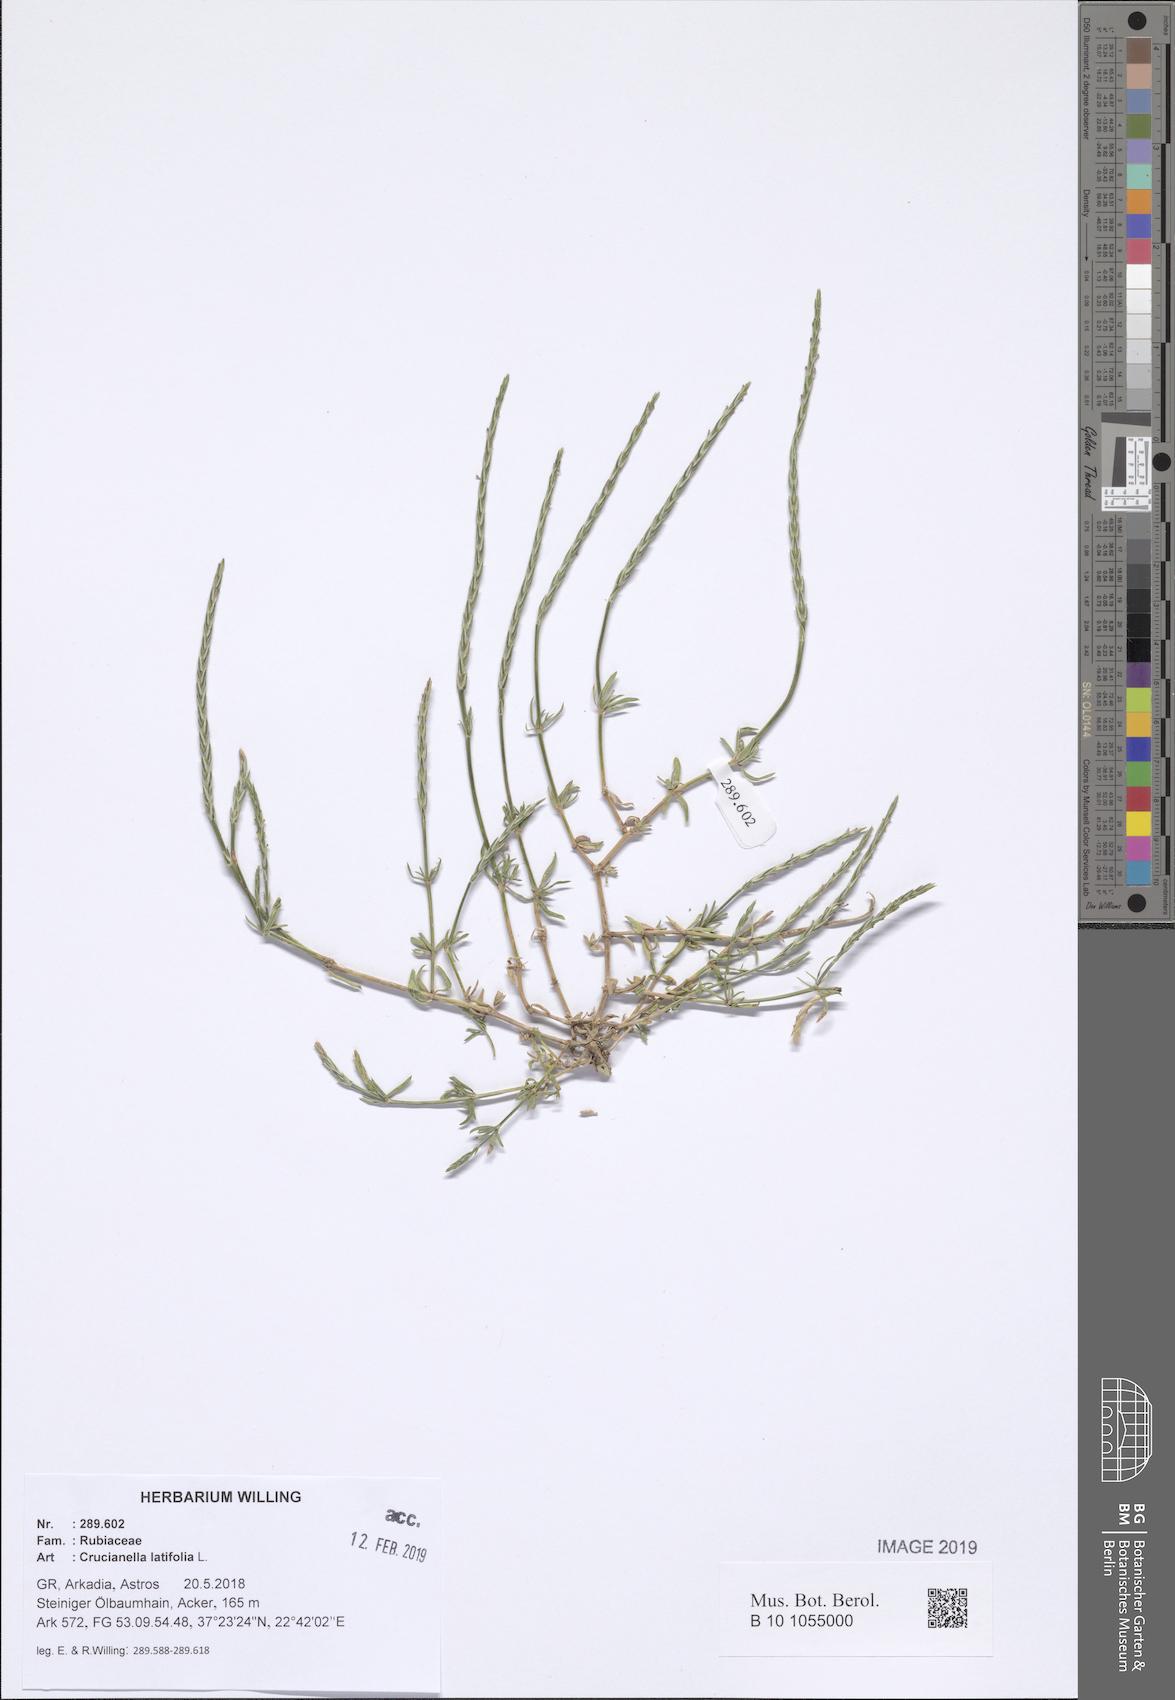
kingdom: Plantae
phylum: Tracheophyta
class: Magnoliopsida
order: Gentianales
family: Rubiaceae
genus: Crucianella
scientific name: Crucianella latifolia
